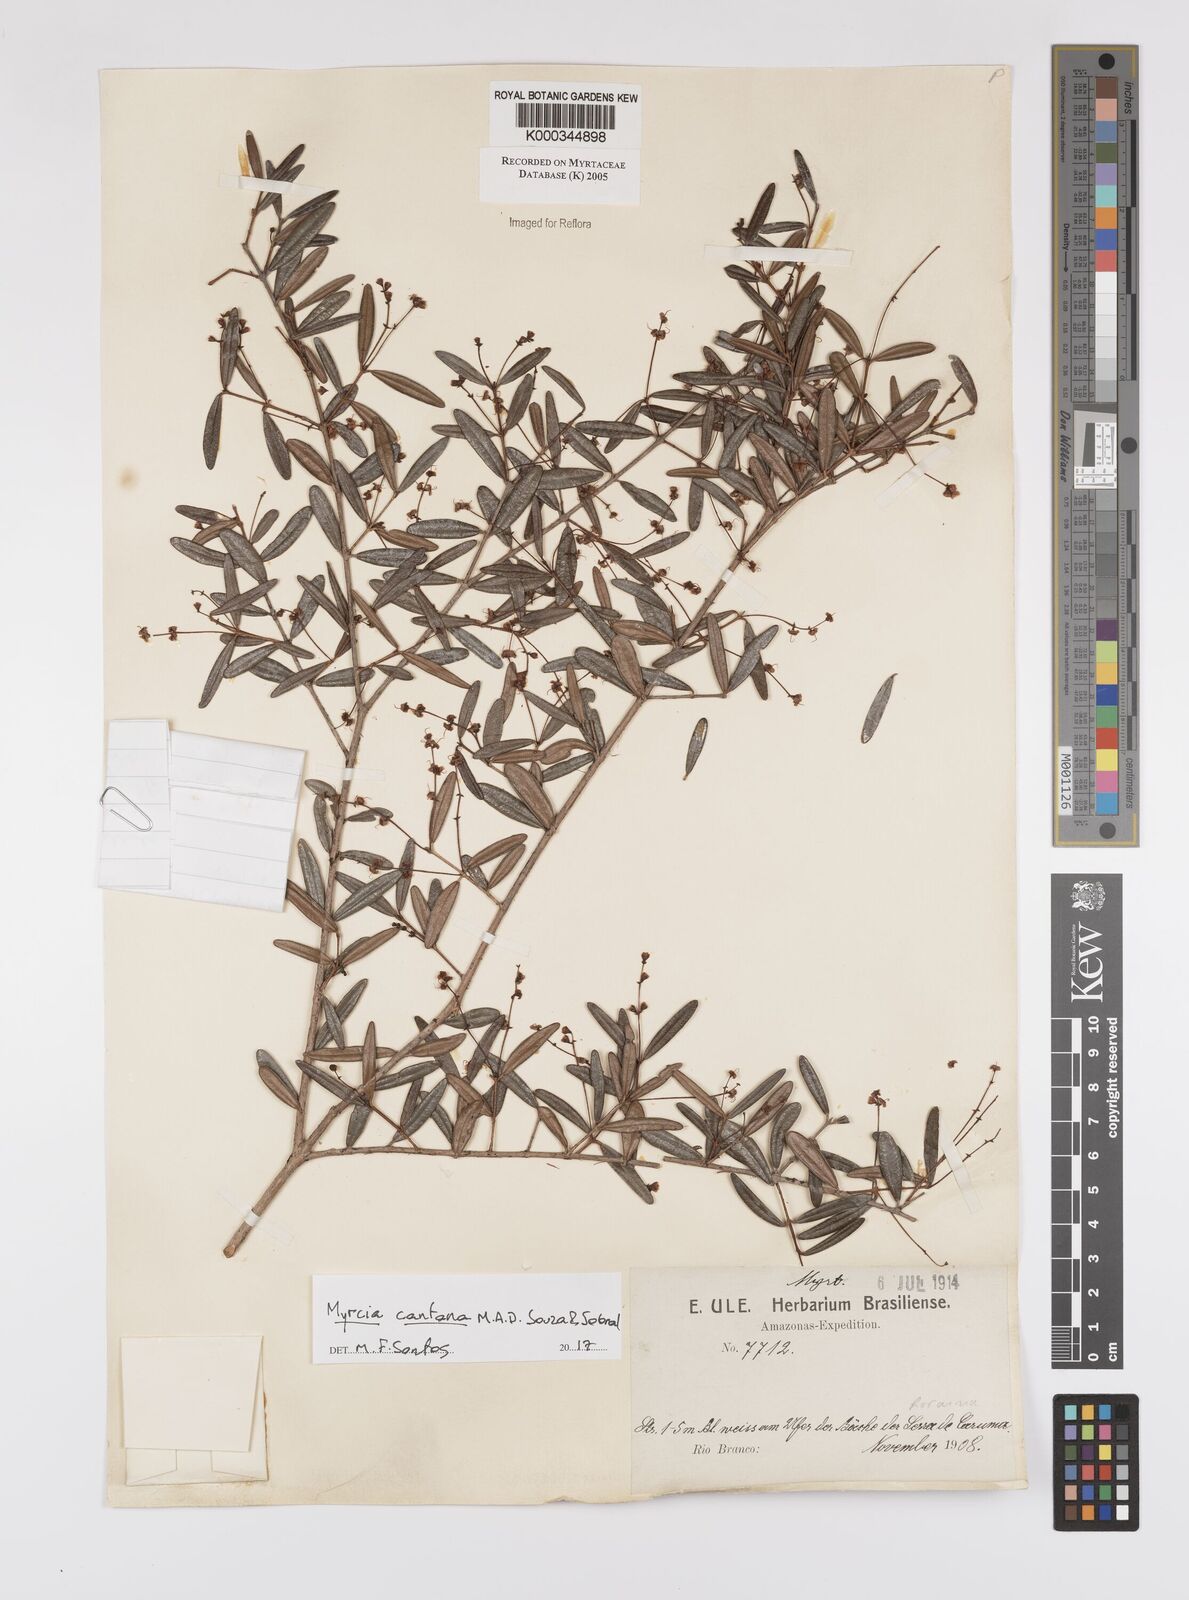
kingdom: Plantae
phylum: Tracheophyta
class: Magnoliopsida
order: Myrtales
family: Myrtaceae
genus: Myrcia
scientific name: Myrcia
